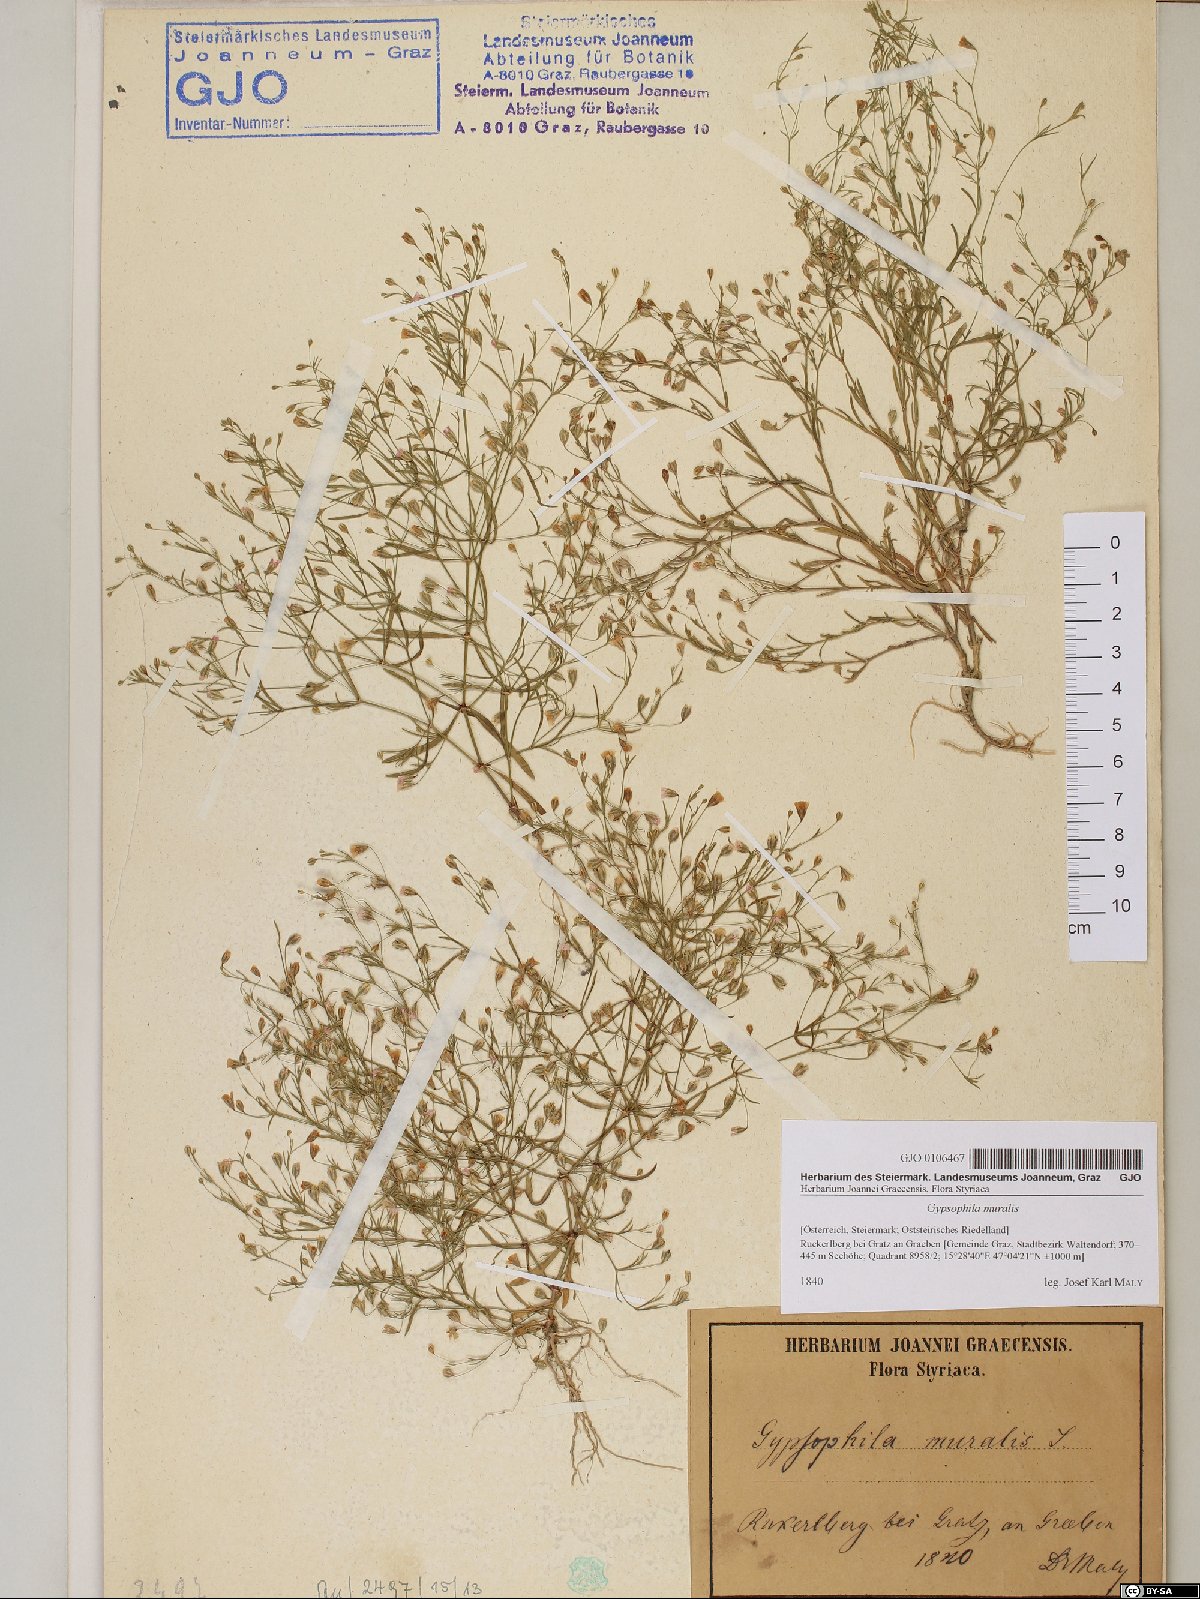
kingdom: Plantae
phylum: Tracheophyta
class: Magnoliopsida
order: Caryophyllales
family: Caryophyllaceae
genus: Psammophiliella
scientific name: Psammophiliella muralis
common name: Cushion baby's-breath
